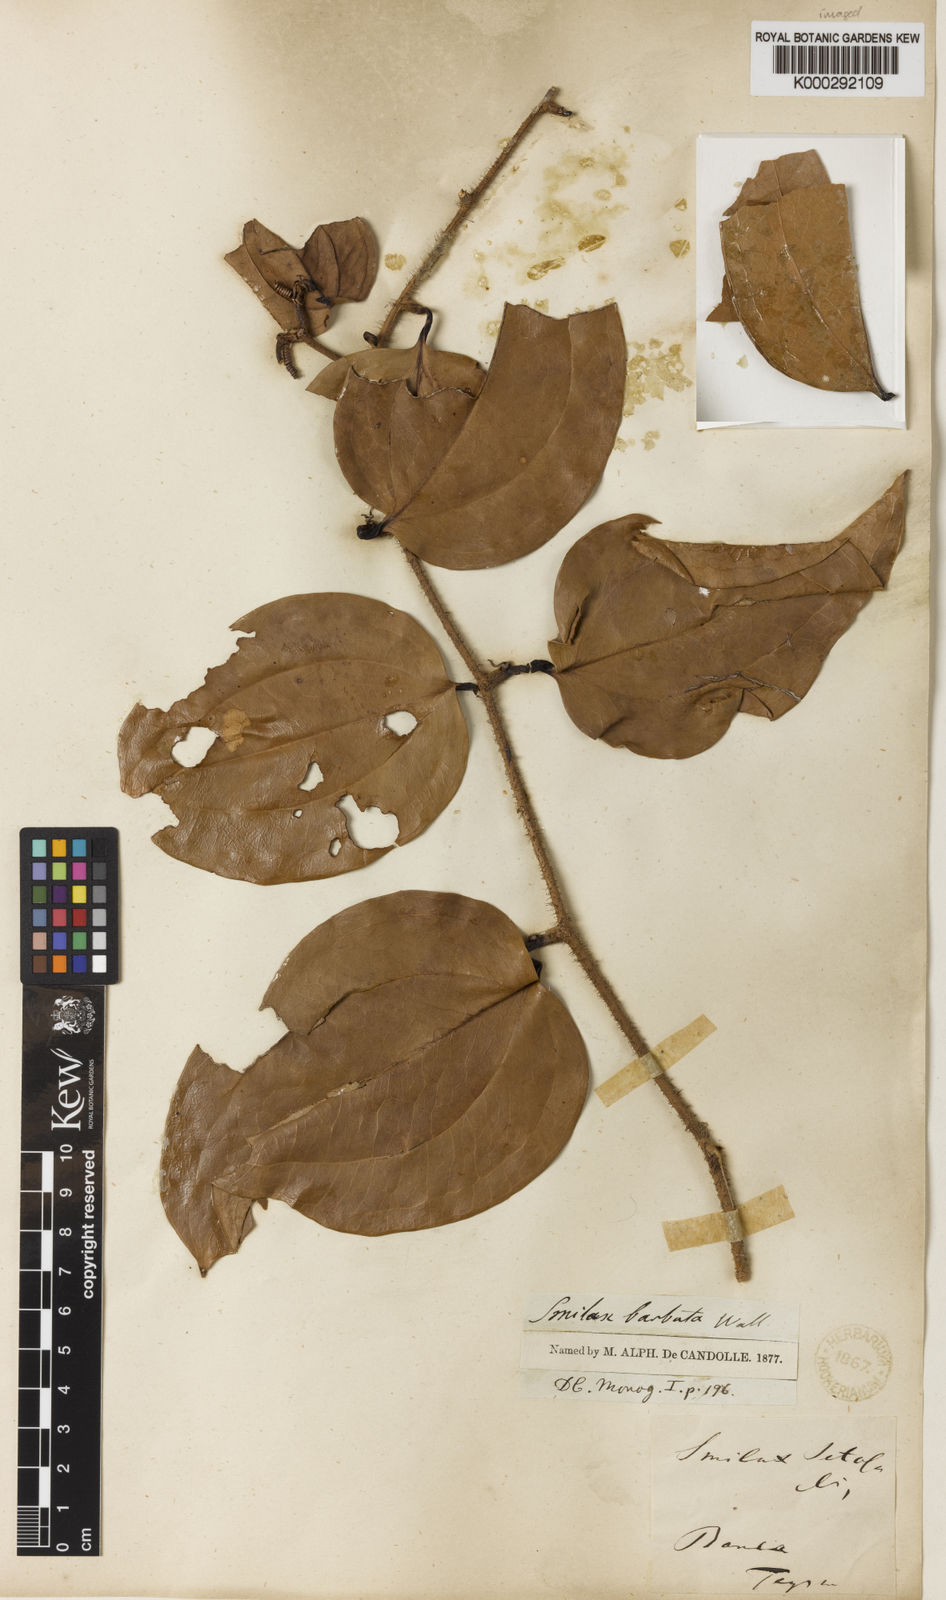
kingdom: Plantae
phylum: Tracheophyta
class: Liliopsida
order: Liliales
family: Smilacaceae
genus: Smilax
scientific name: Smilax
